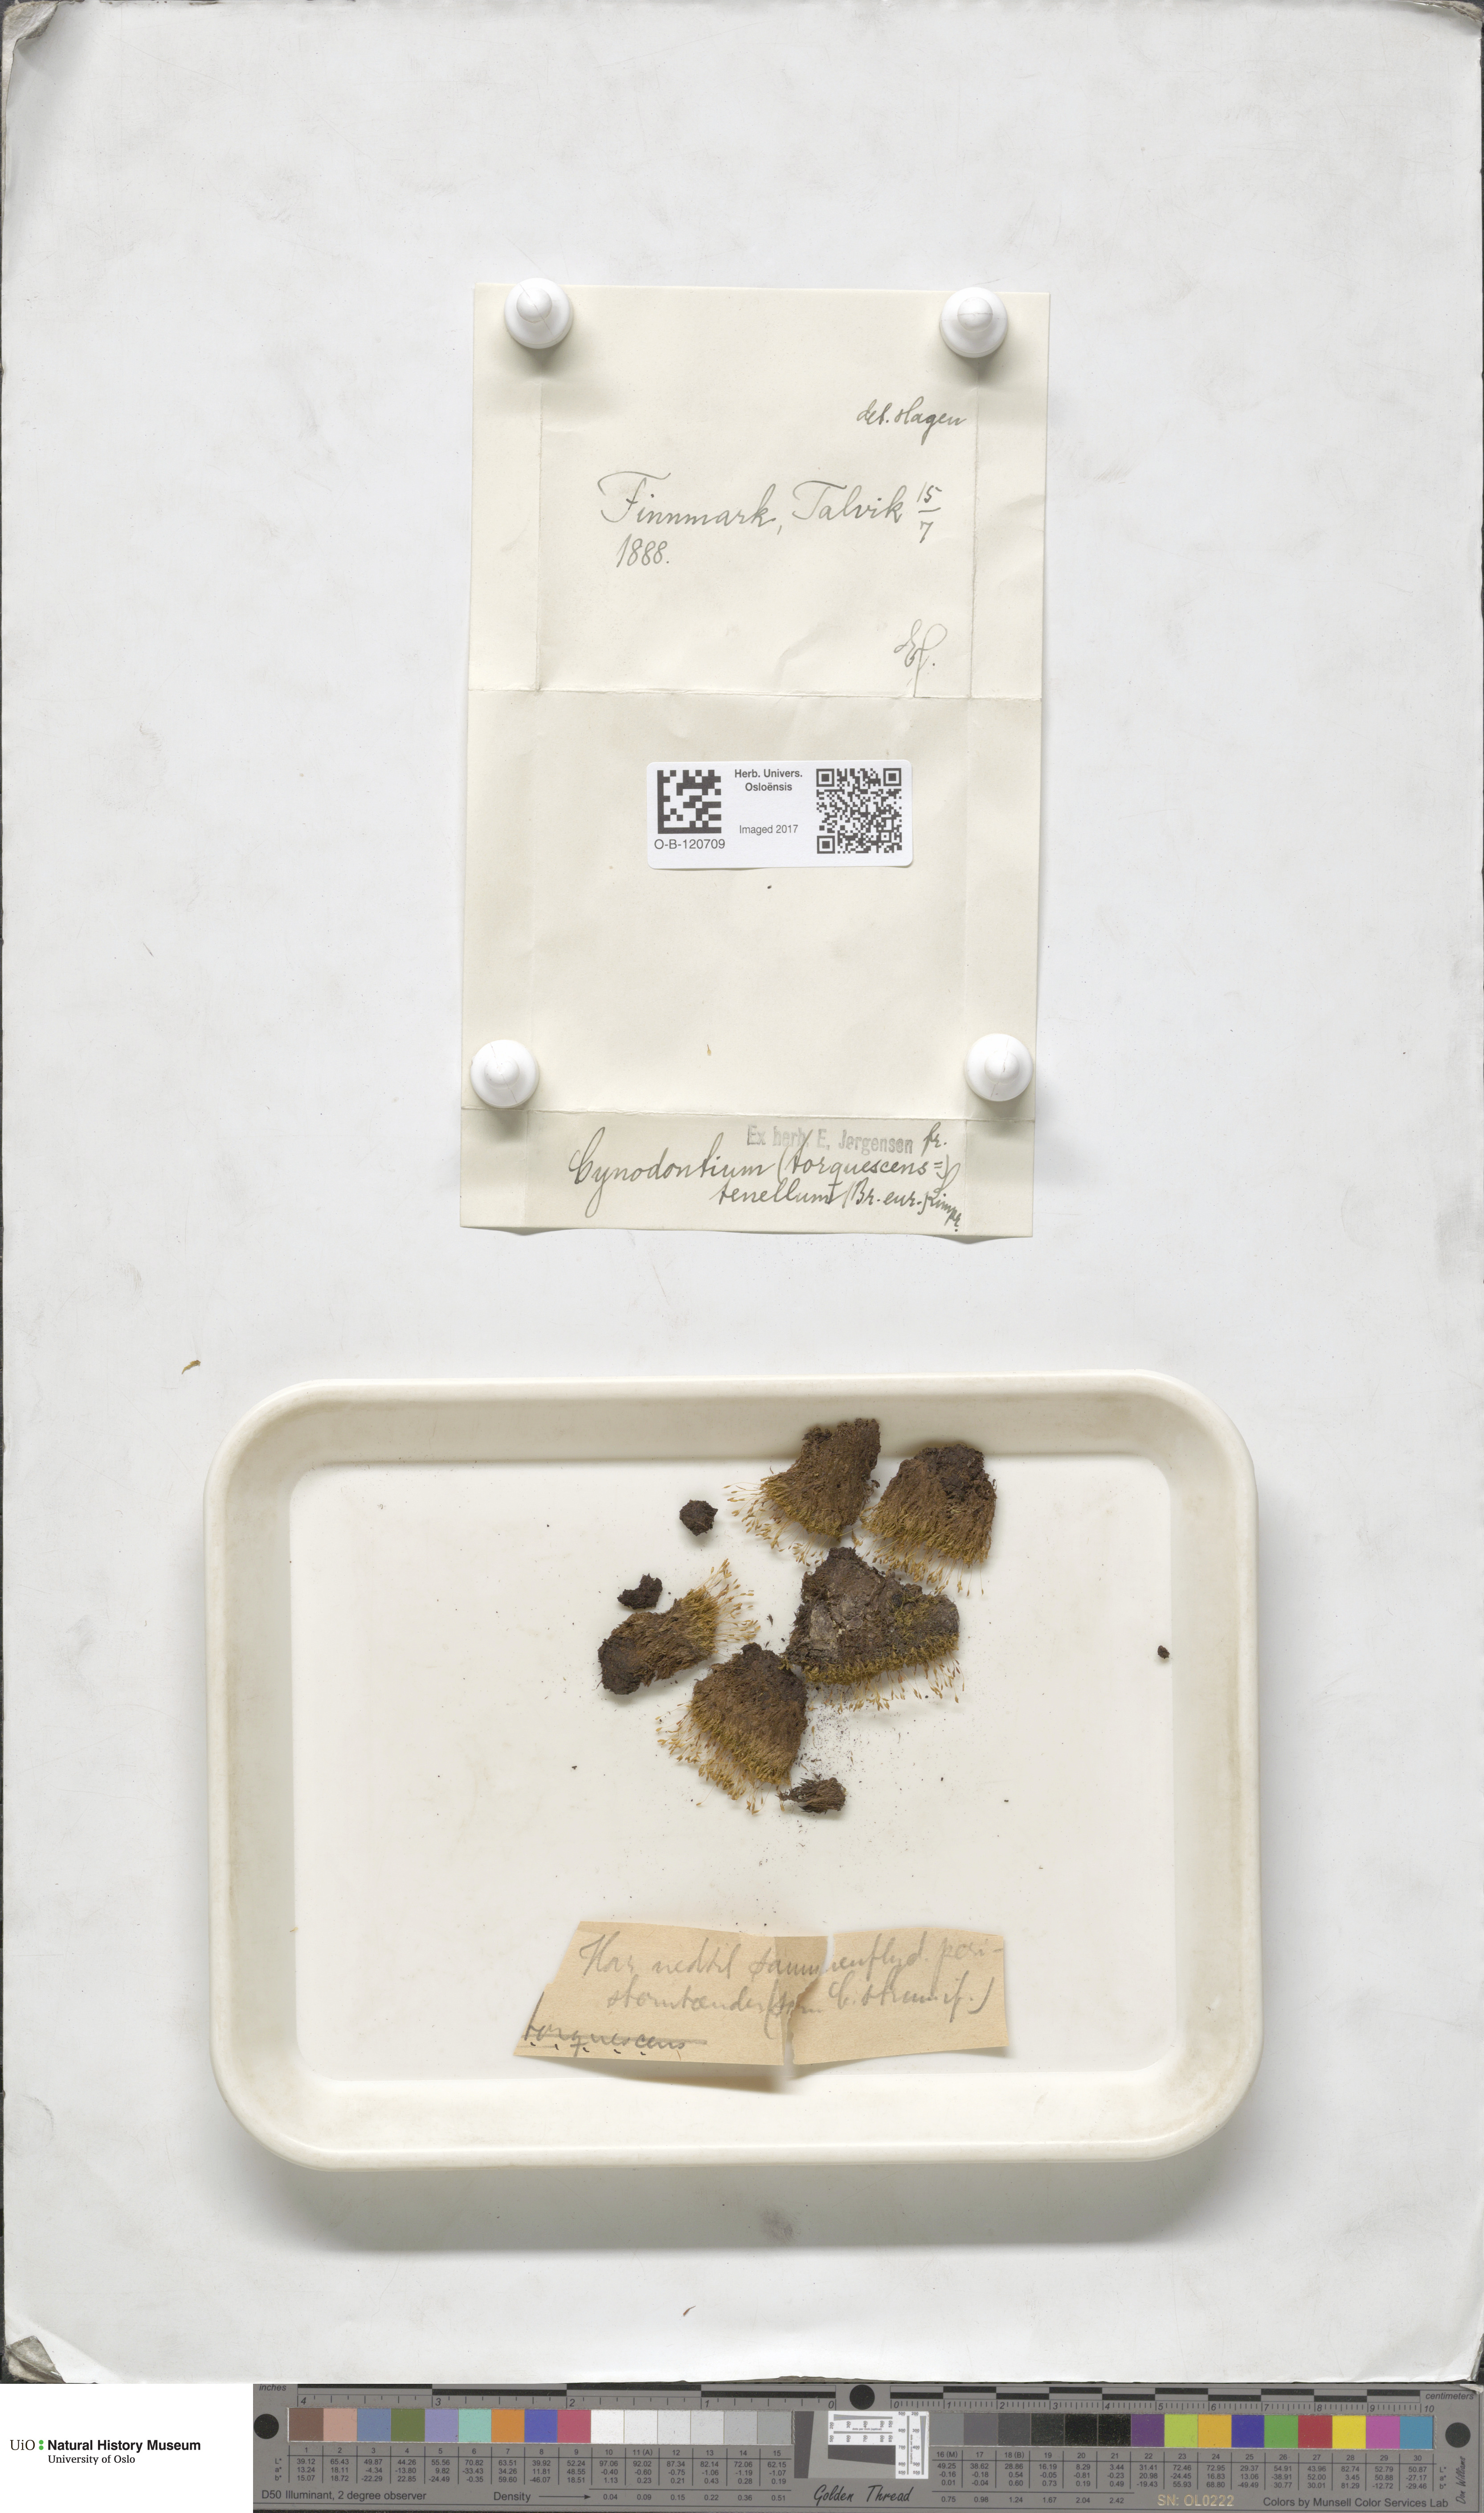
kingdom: Plantae
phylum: Bryophyta
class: Bryopsida
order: Dicranales
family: Rhabdoweisiaceae
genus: Cynodontium
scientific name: Cynodontium tenellum
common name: Delicate dogtooth moss
